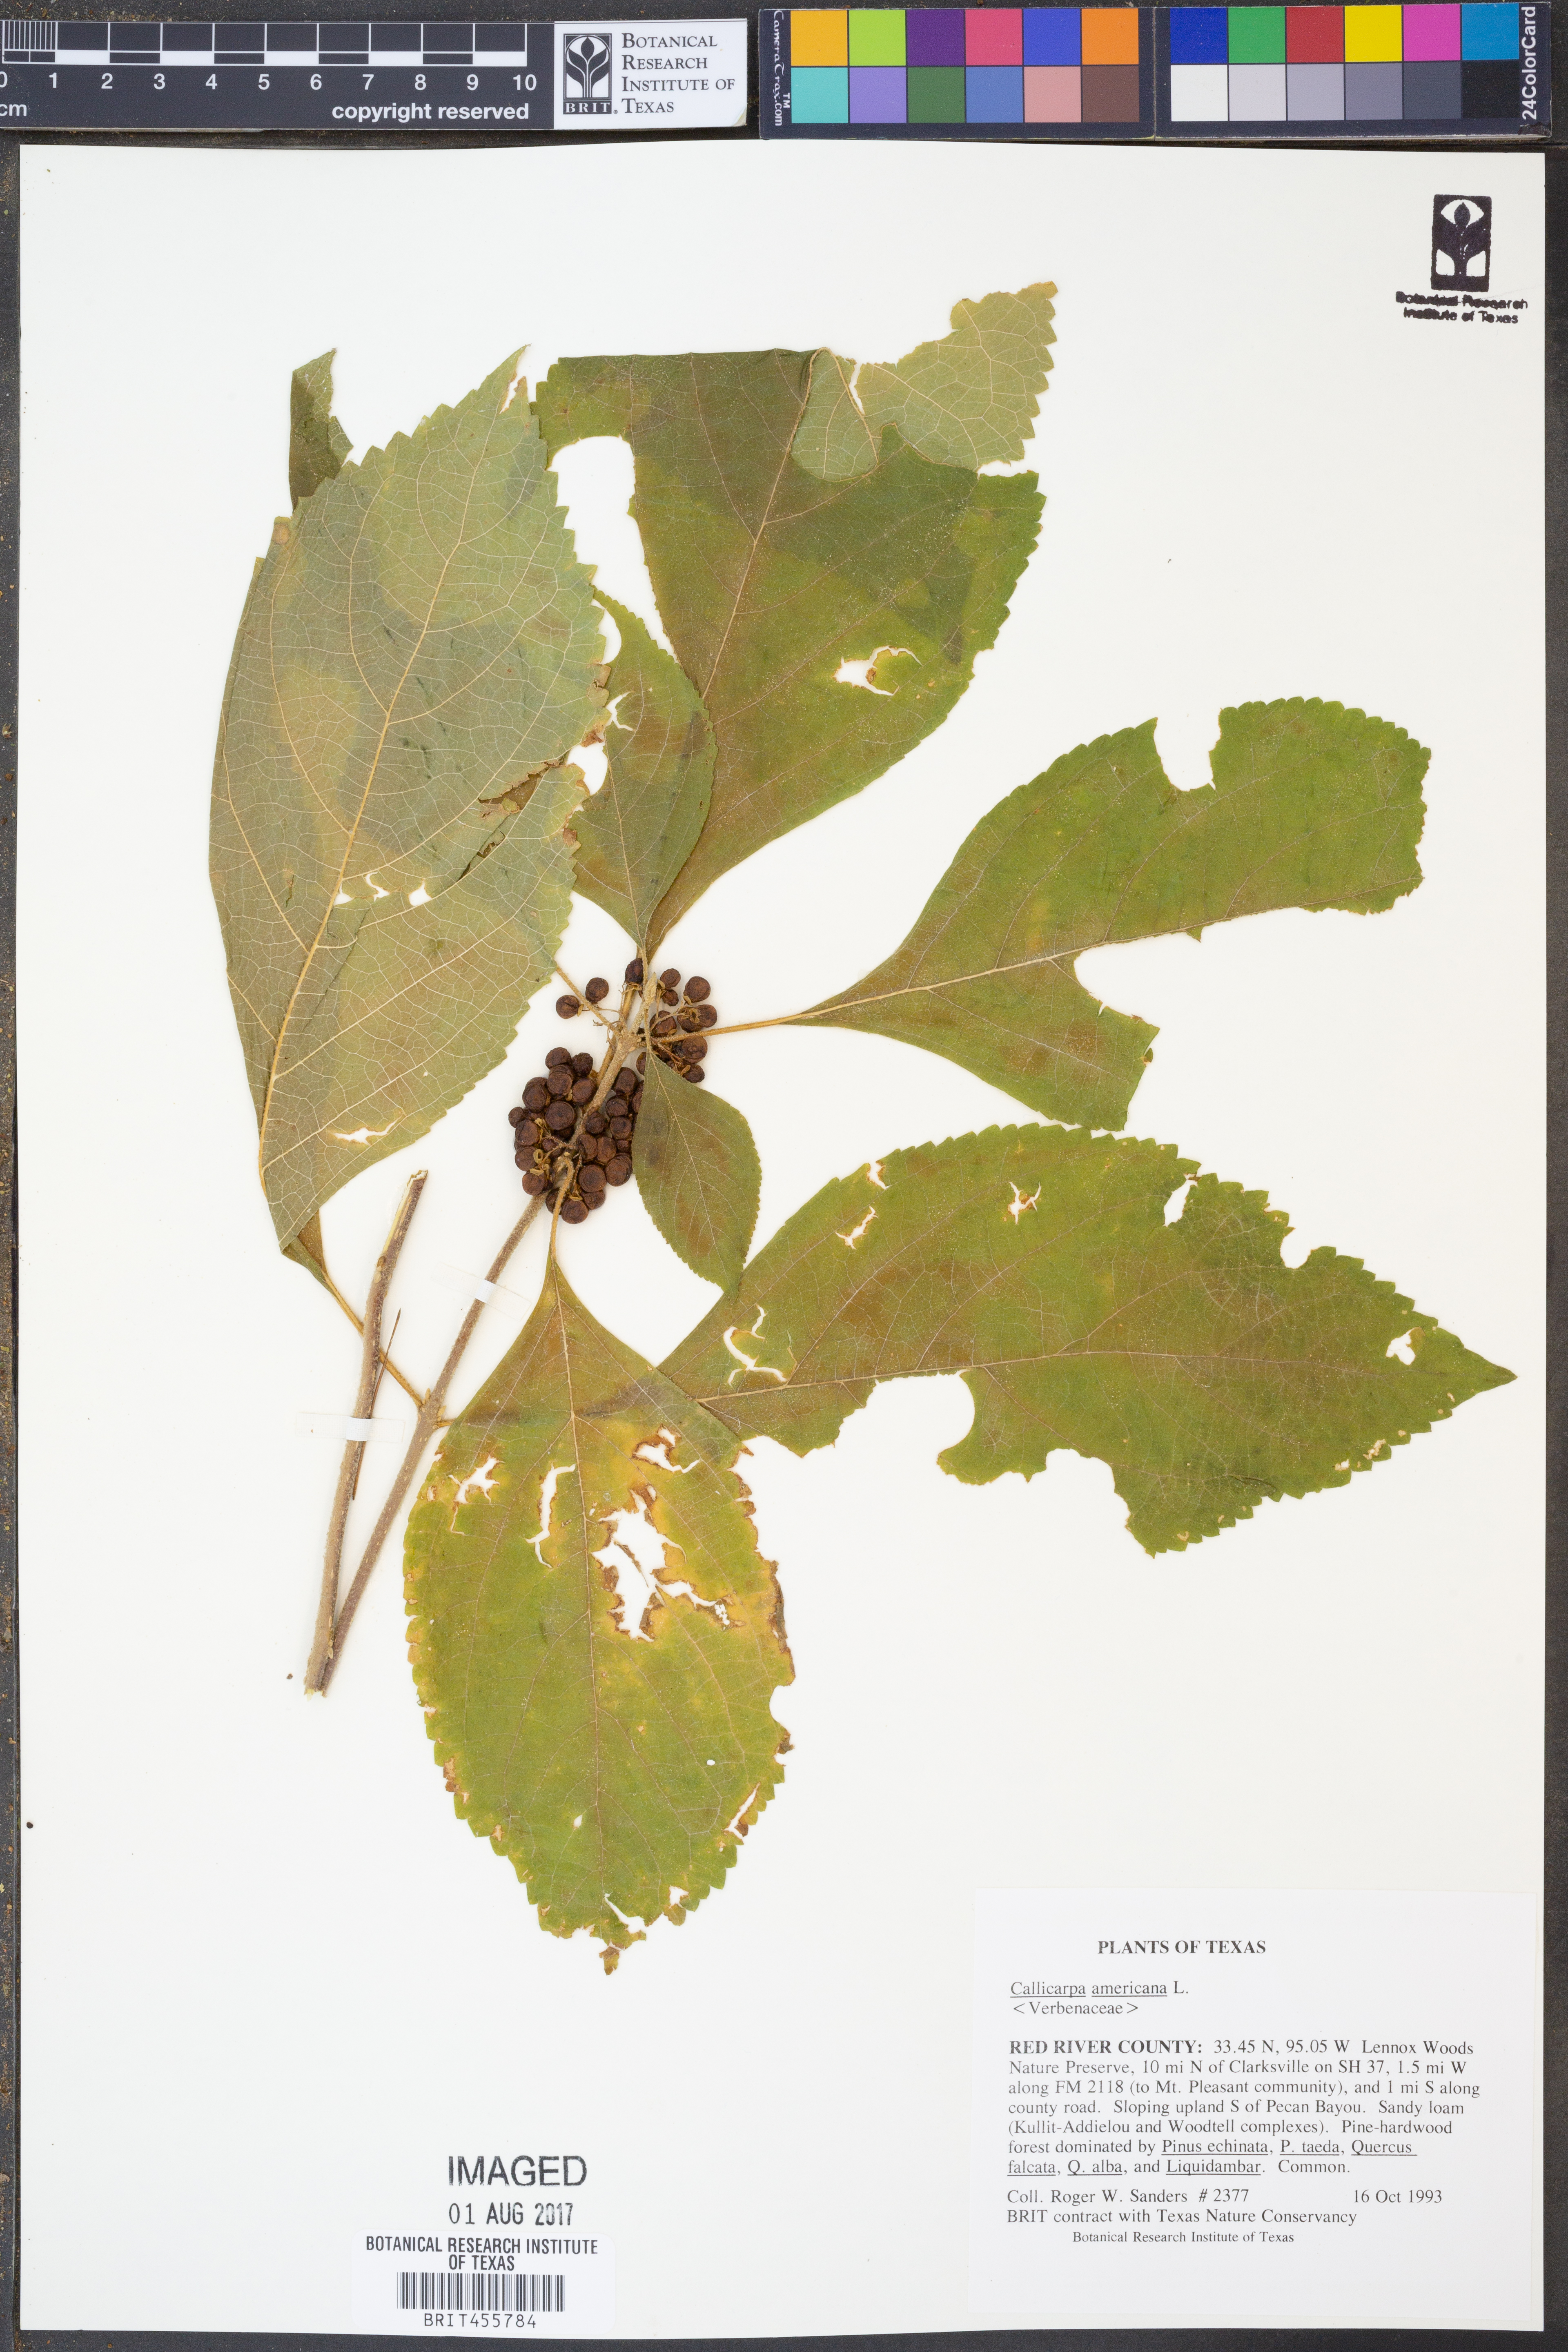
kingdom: Plantae
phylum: Tracheophyta
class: Magnoliopsida
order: Lamiales
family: Lamiaceae
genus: Callicarpa
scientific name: Callicarpa americana
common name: American beautyberry
